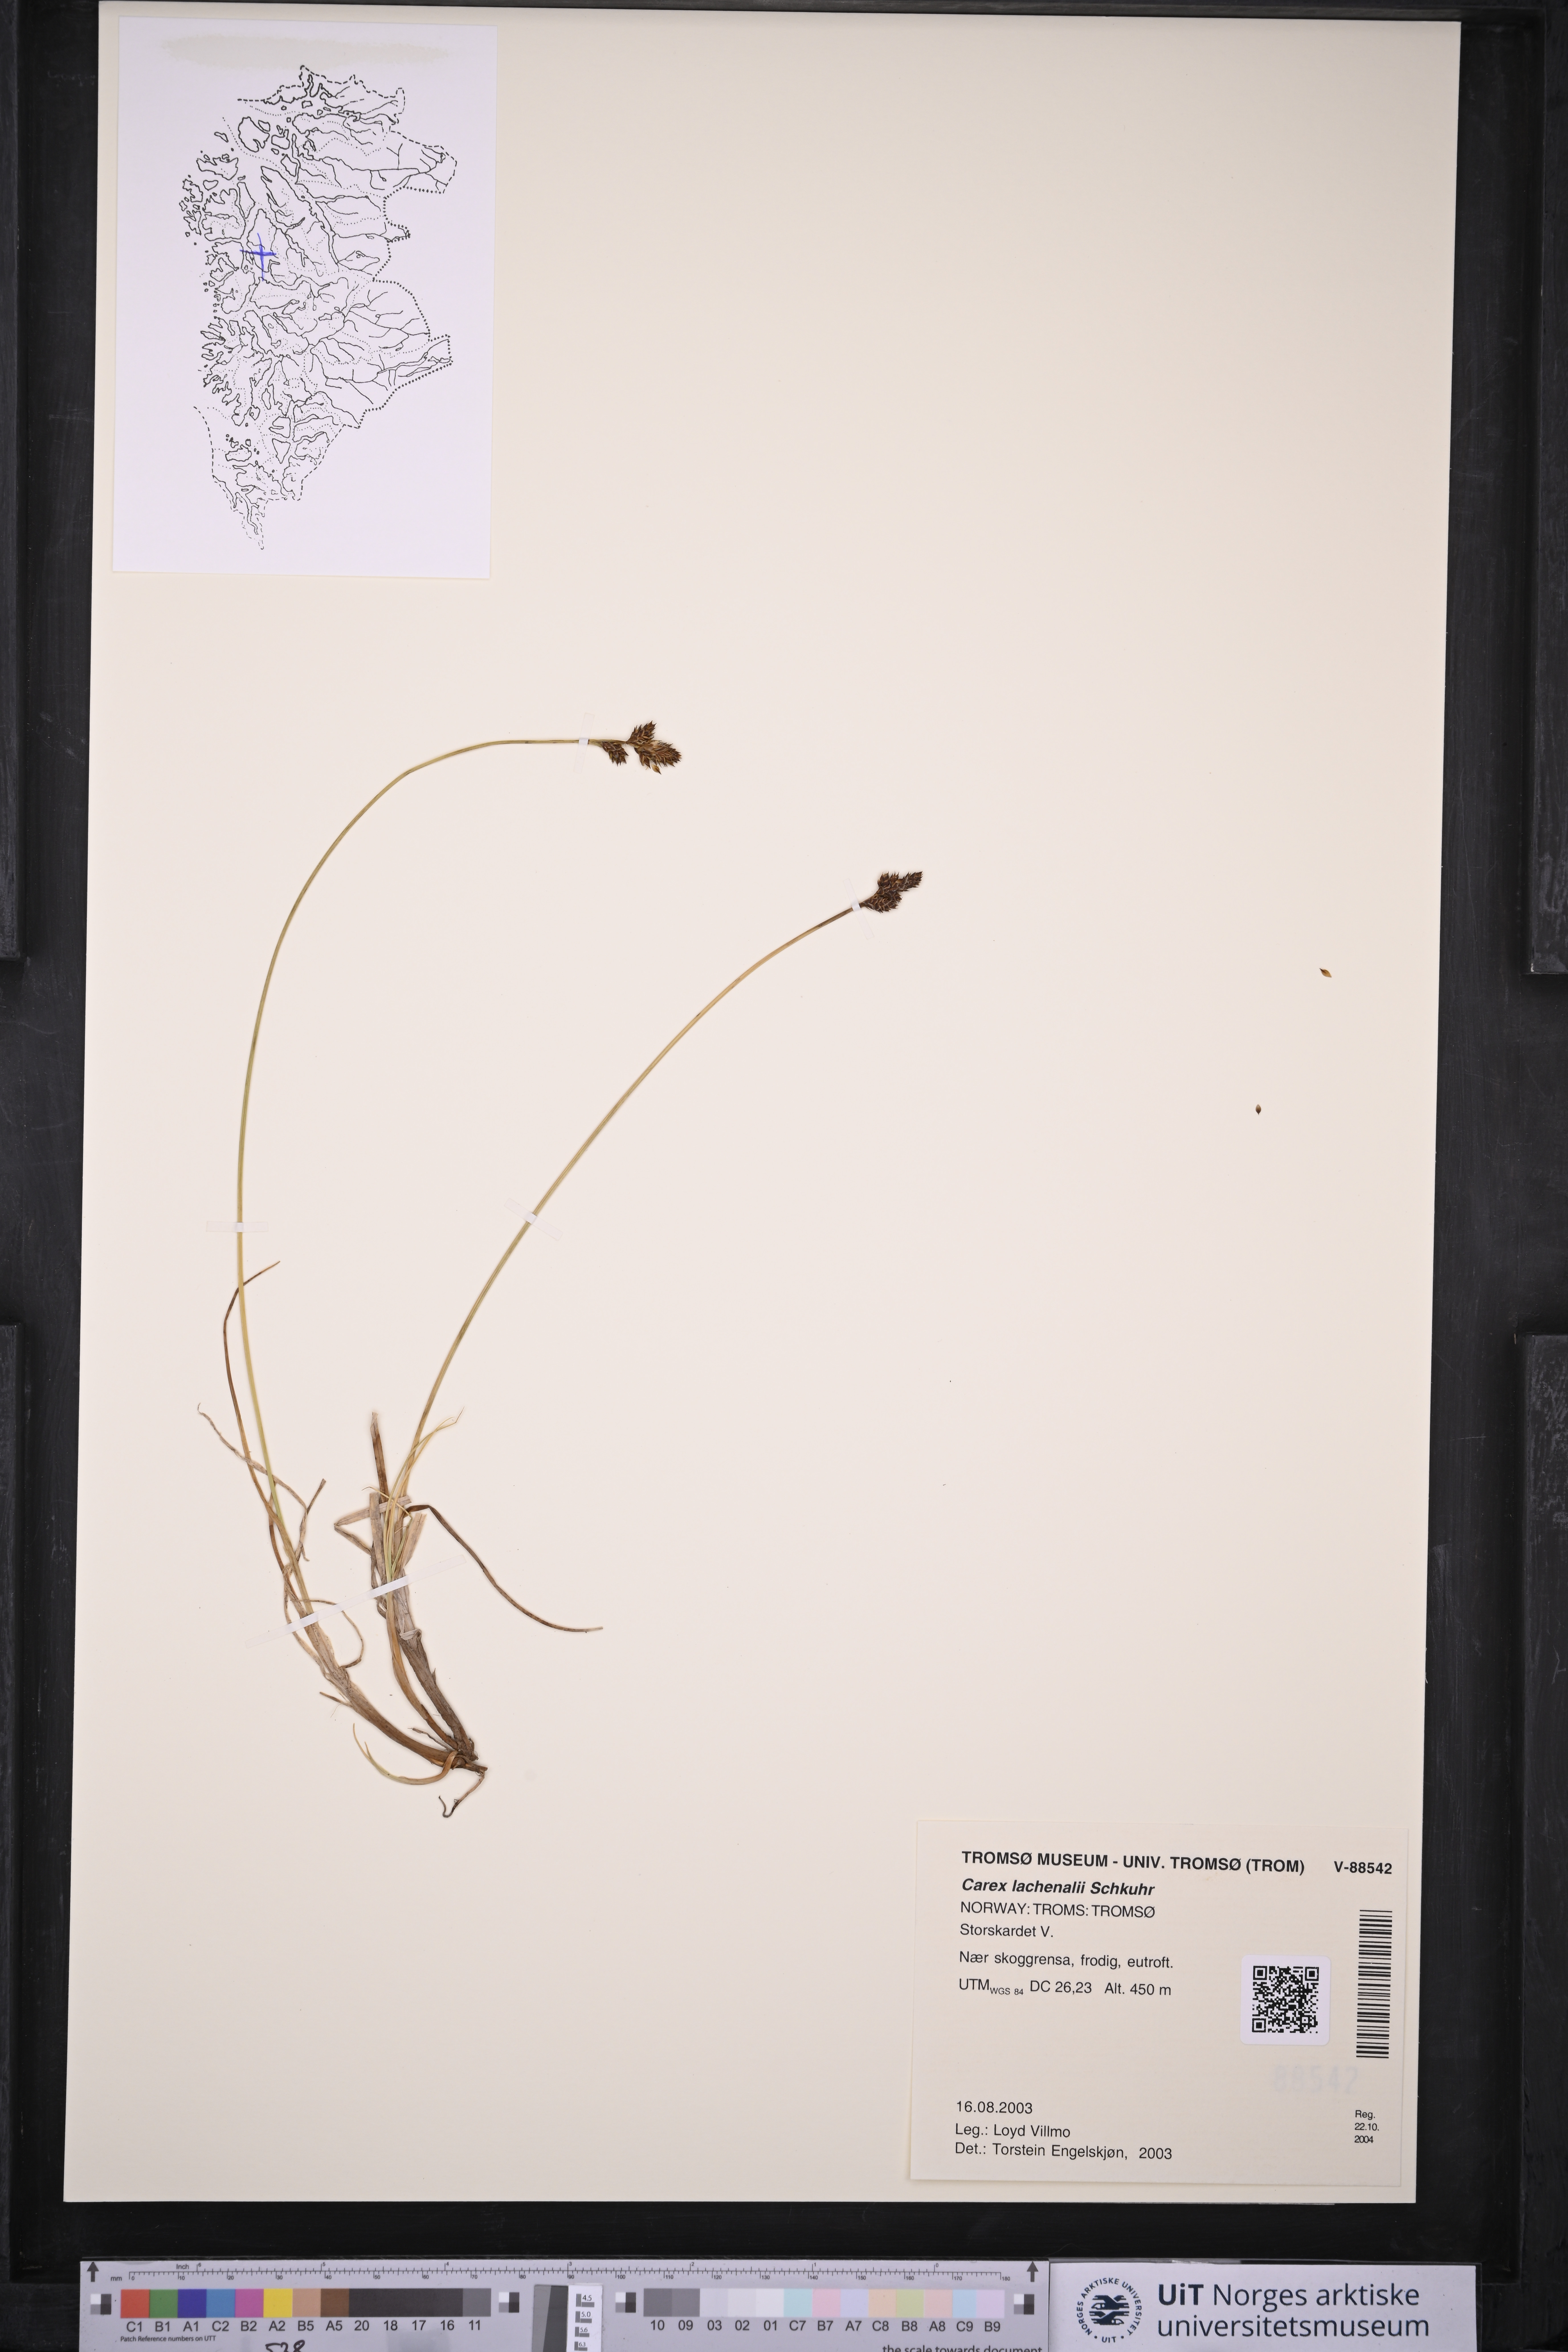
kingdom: Plantae
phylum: Tracheophyta
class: Liliopsida
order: Poales
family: Cyperaceae
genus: Carex
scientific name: Carex lachenalii
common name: Hare's-foot sedge
